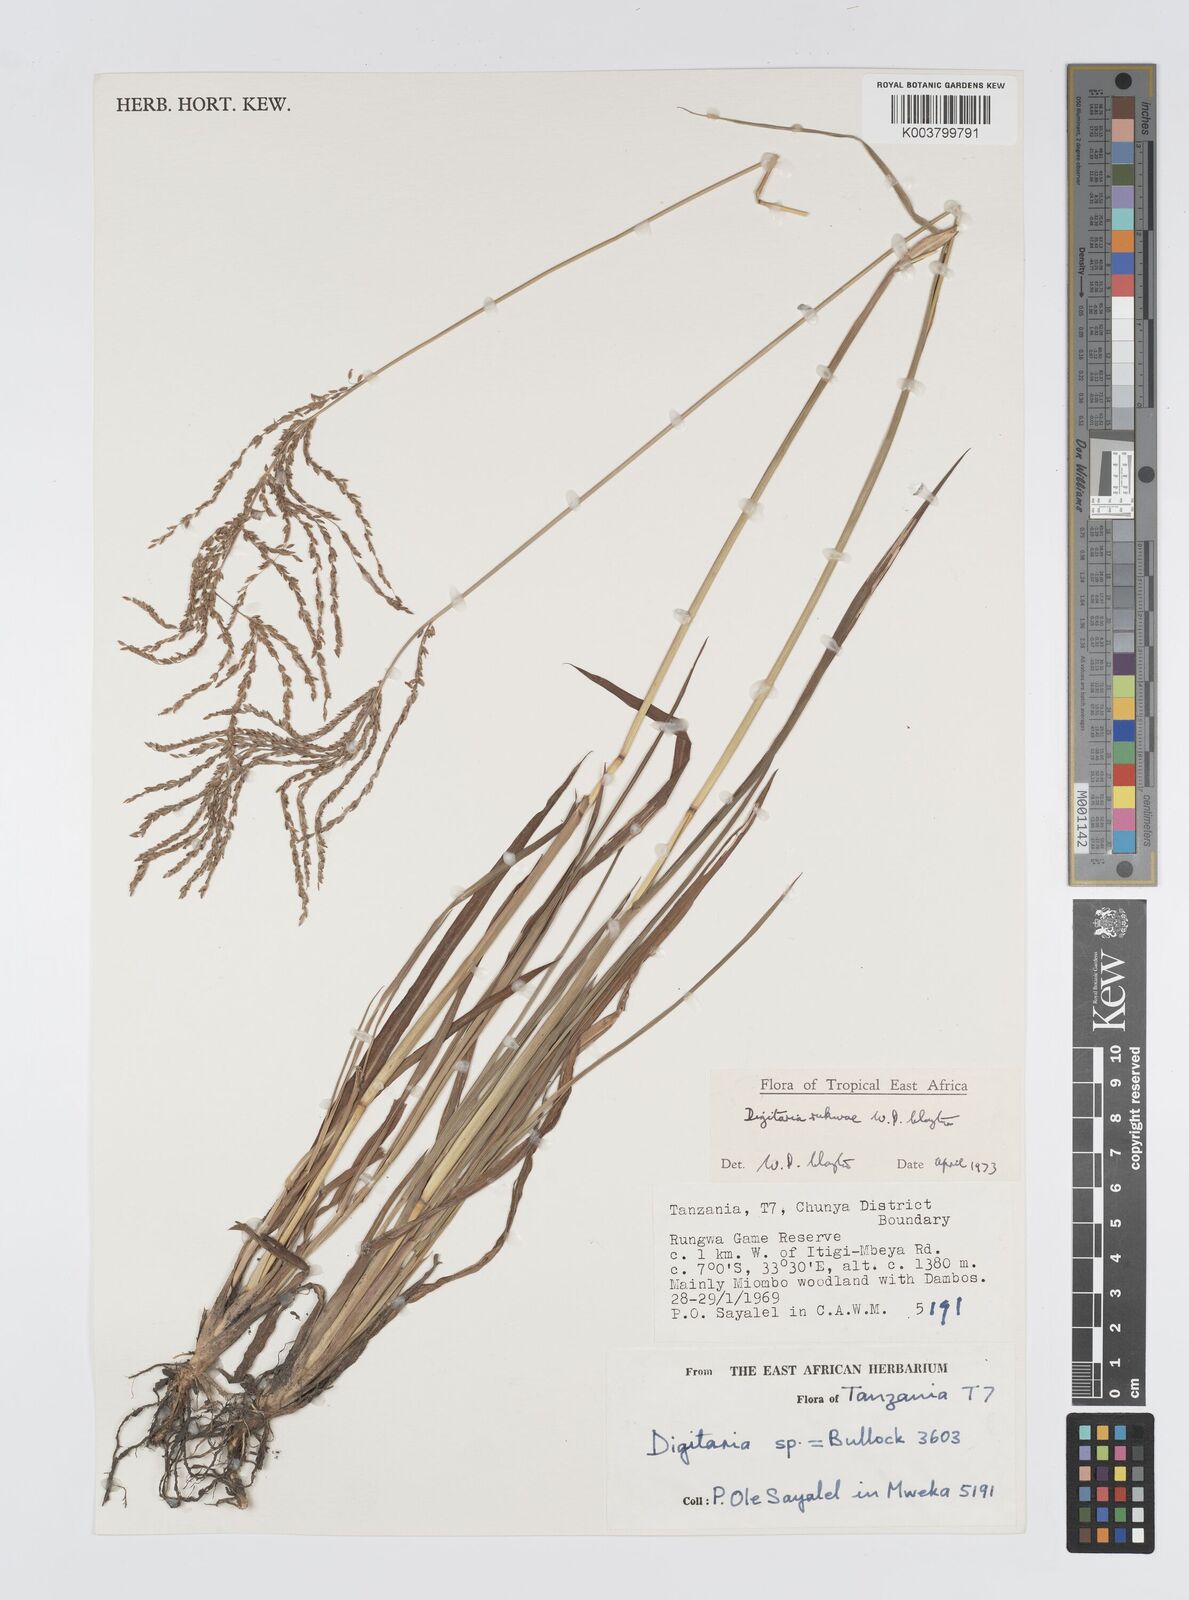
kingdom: Plantae
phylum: Tracheophyta
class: Liliopsida
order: Poales
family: Poaceae
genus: Digitaria
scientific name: Digitaria rukwae
